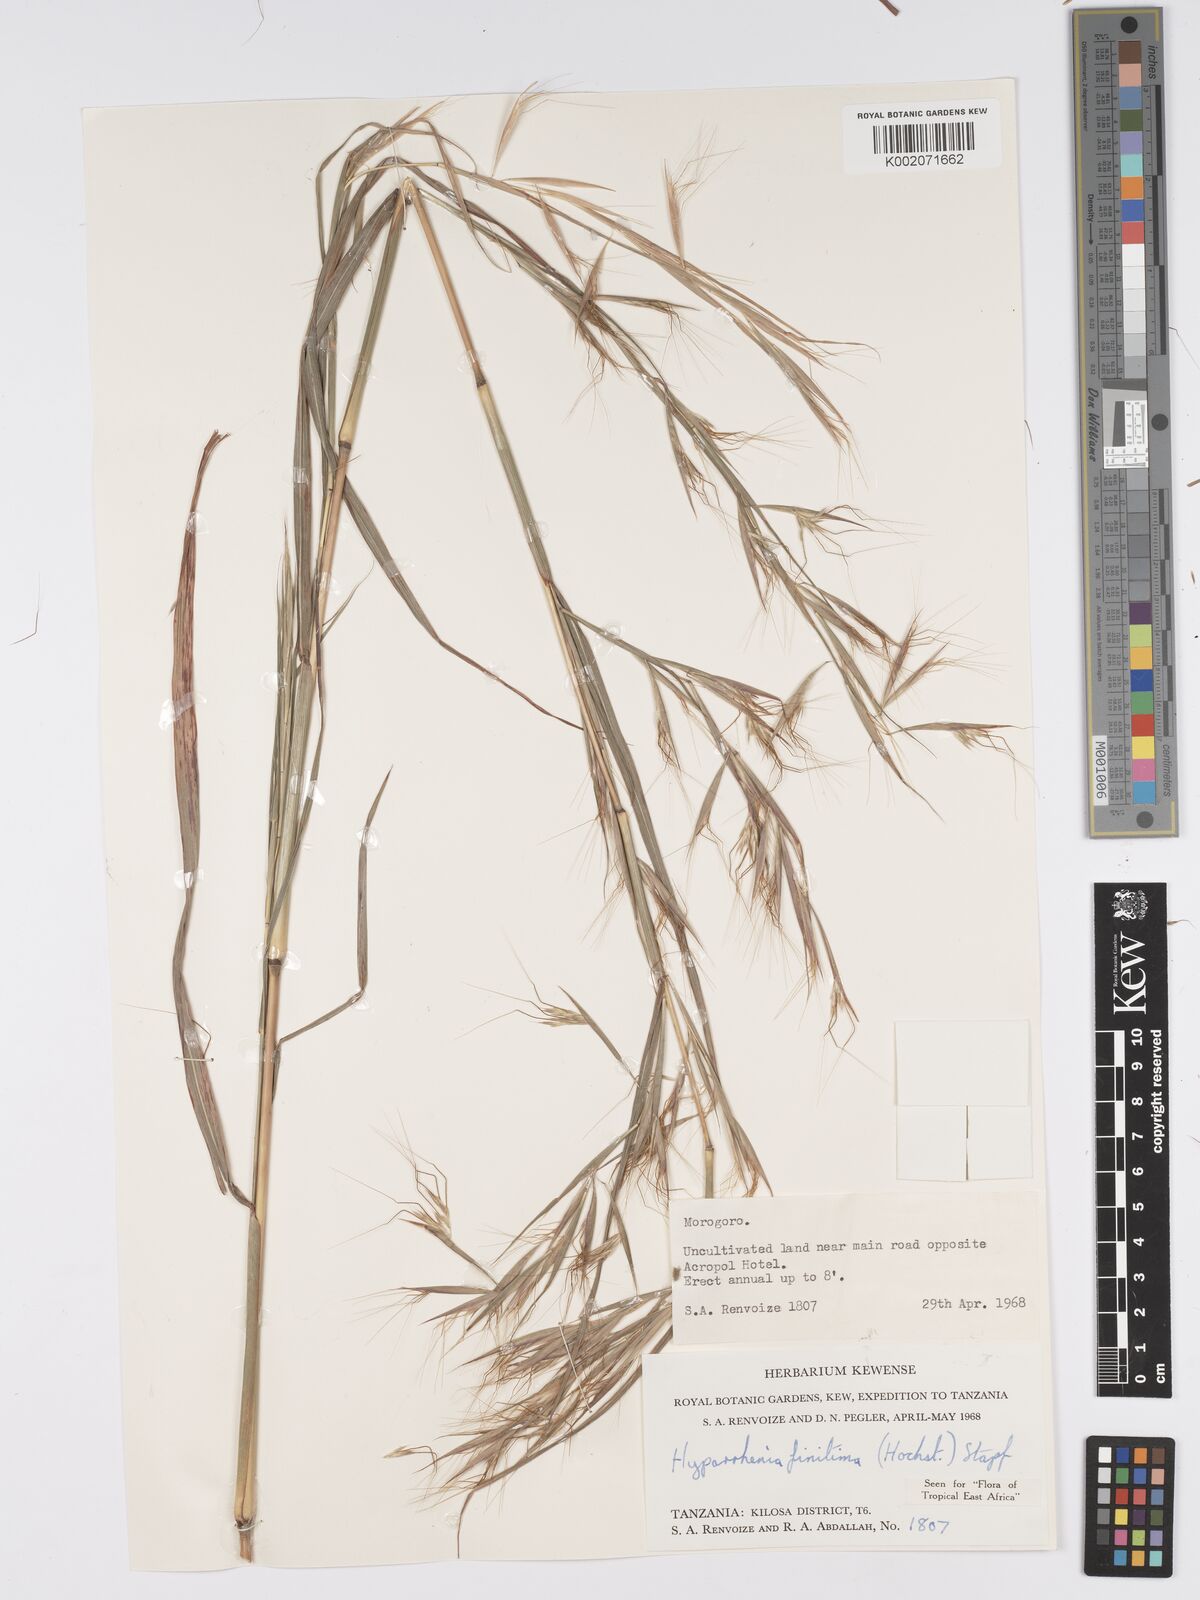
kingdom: Plantae
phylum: Tracheophyta
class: Liliopsida
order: Poales
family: Poaceae
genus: Hyparrhenia
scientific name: Hyparrhenia finitima
